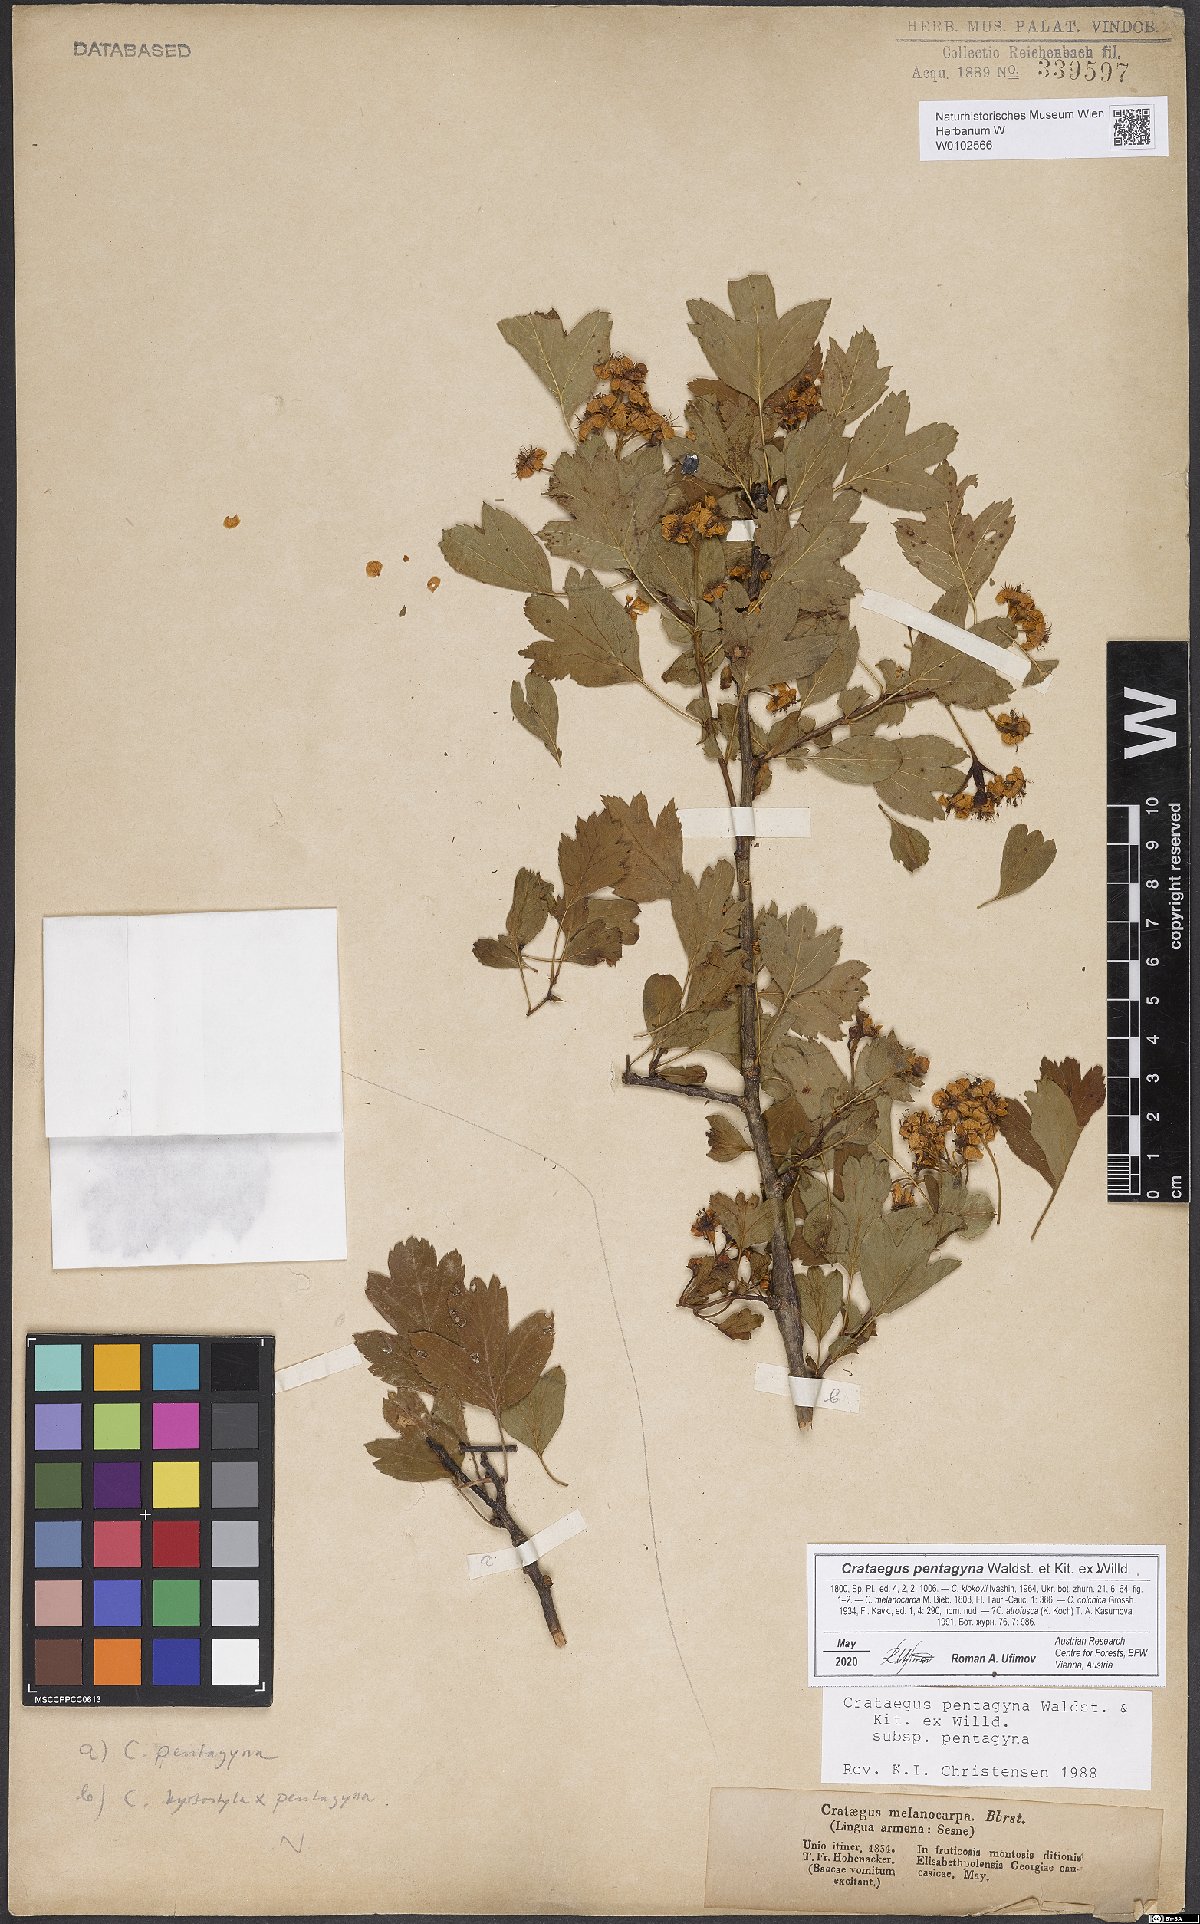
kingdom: Plantae
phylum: Tracheophyta
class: Magnoliopsida
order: Rosales
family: Rosaceae
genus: Crataegus
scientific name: Crataegus pentagyna
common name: Small-flowered black hawthorn
